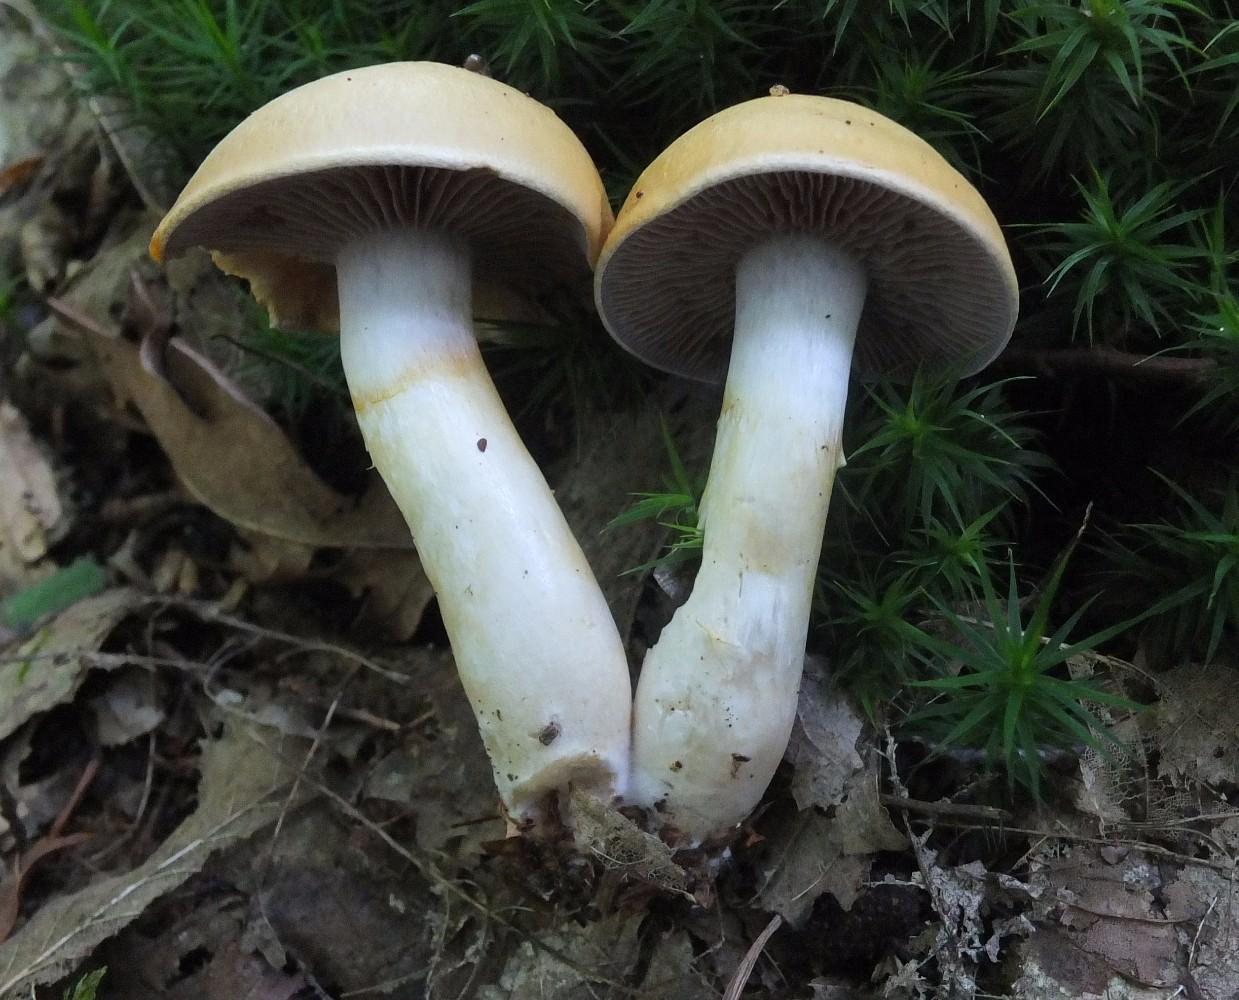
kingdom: Fungi
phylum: Basidiomycota
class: Agaricomycetes
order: Agaricales
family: Cortinariaceae
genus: Cortinarius
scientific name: Cortinarius delibutus
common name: gul slørhat
